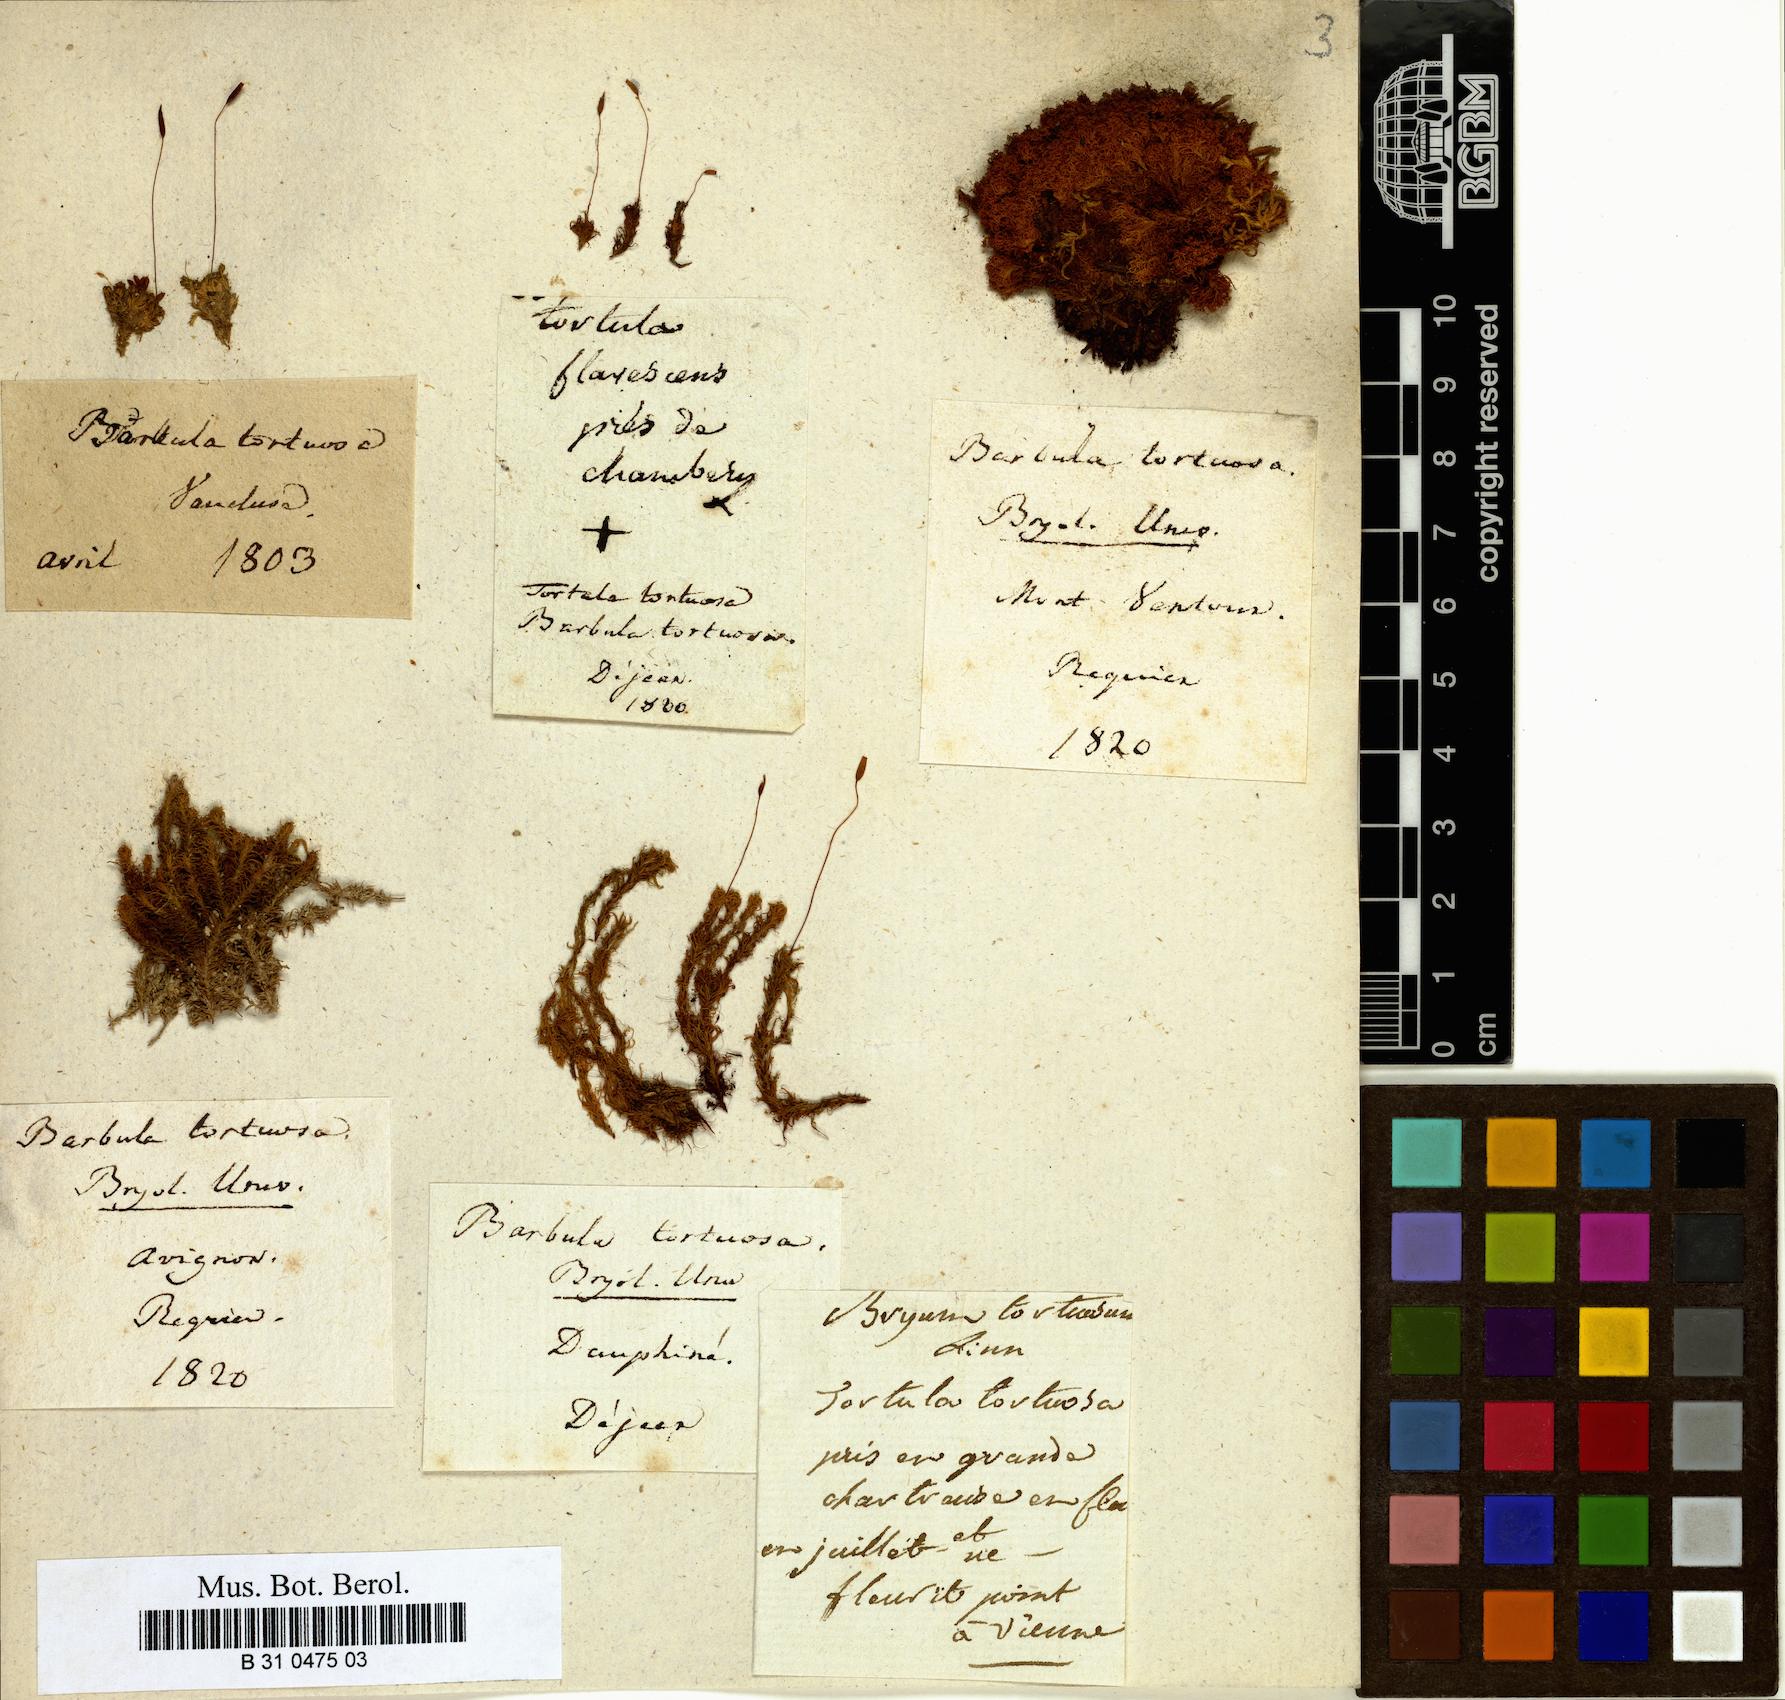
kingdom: Plantae
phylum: Bryophyta
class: Bryopsida
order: Pottiales
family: Pottiaceae
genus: Tortella
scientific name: Tortella tortuosa
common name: Frizzled crisp moss
